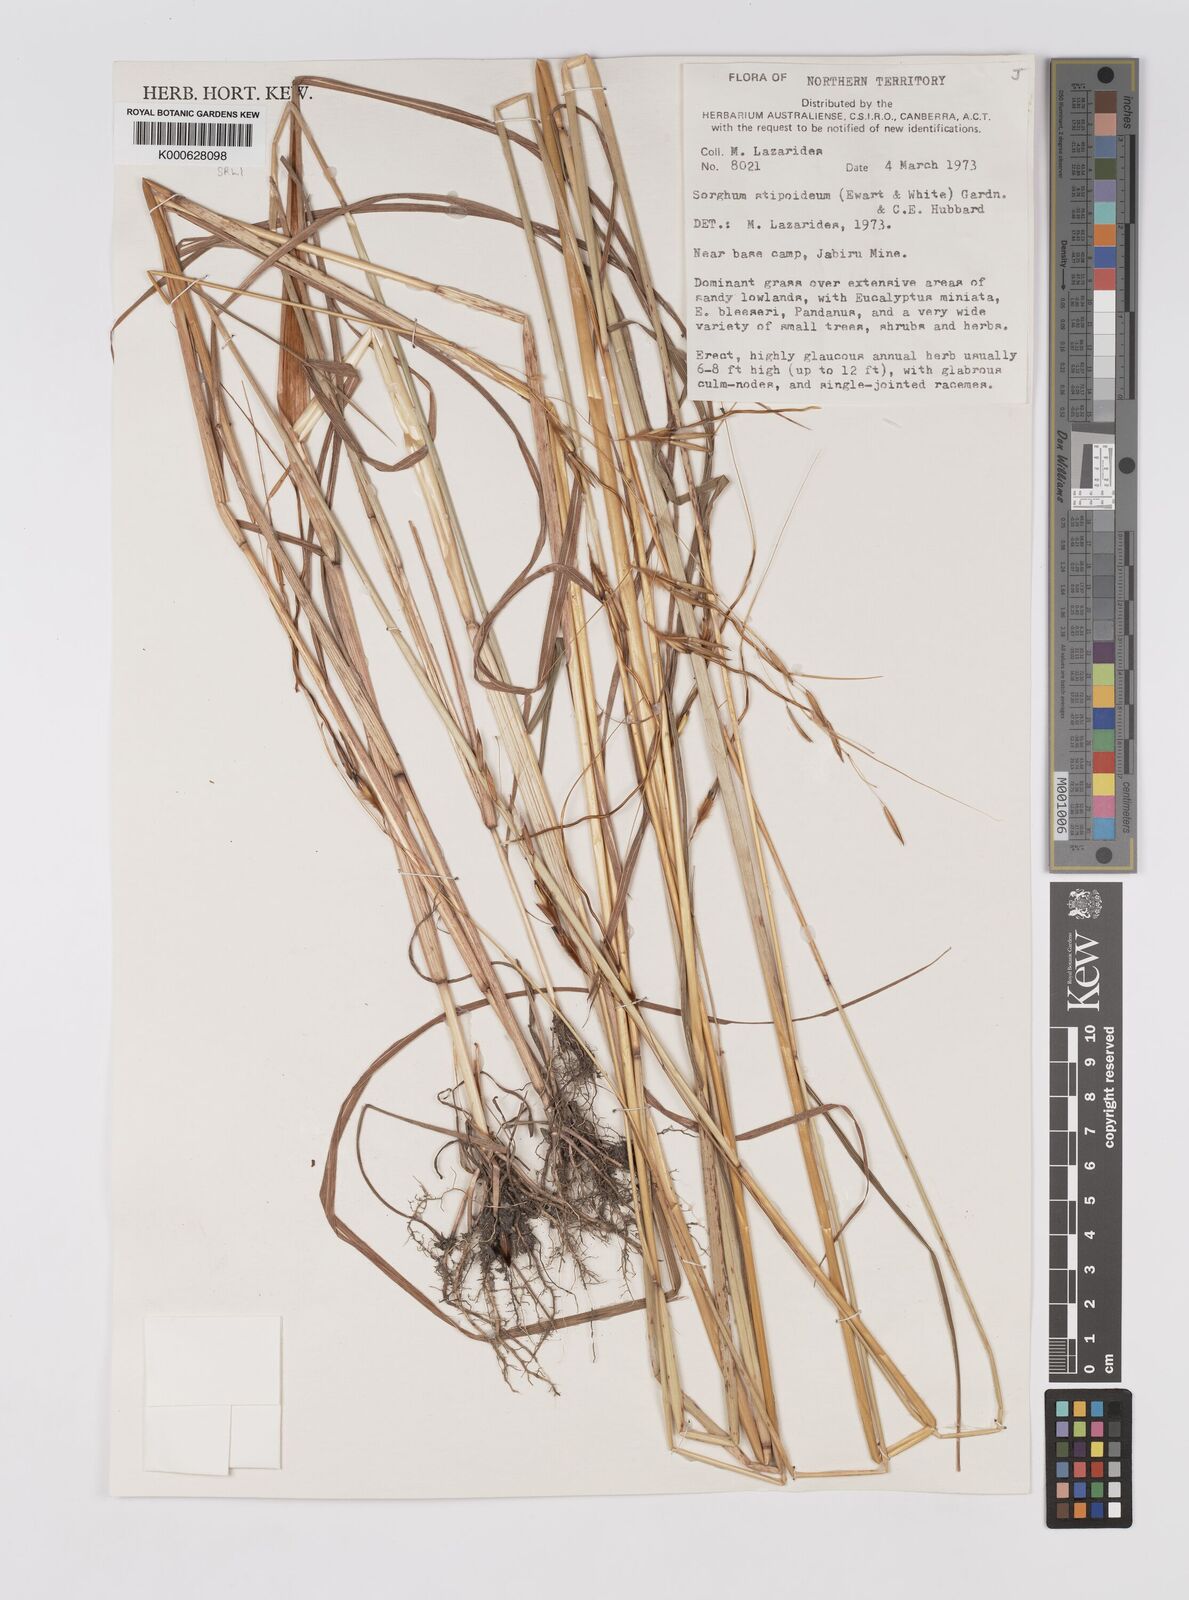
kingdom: Plantae
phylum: Tracheophyta
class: Liliopsida
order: Poales
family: Poaceae
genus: Sarga
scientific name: Sarga stipoidea
